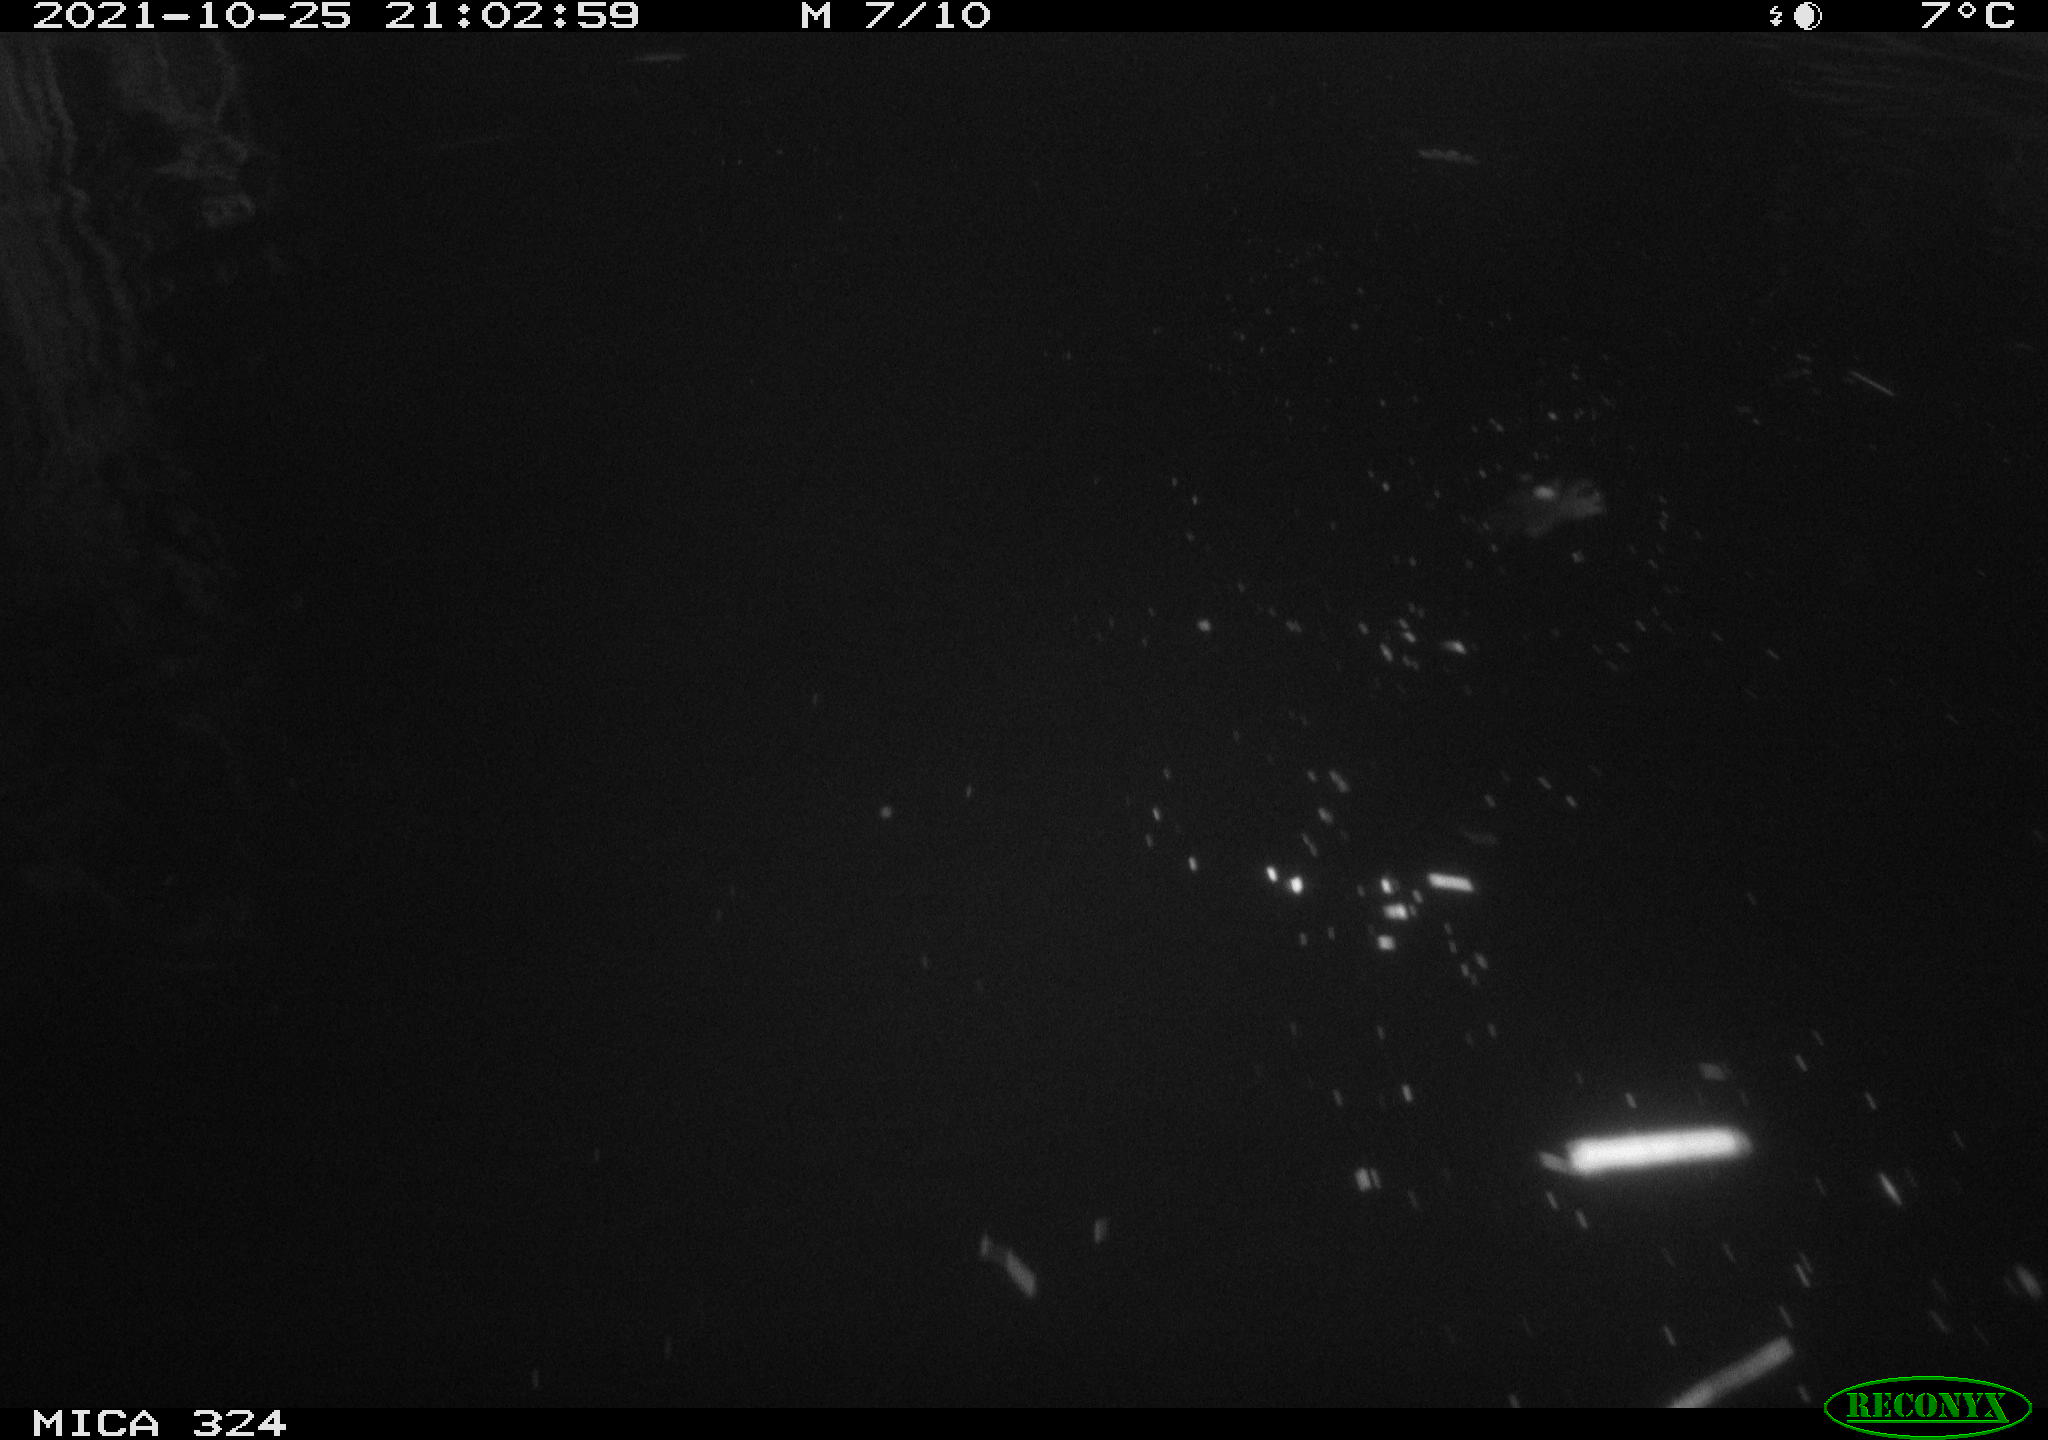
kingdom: Animalia
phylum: Chordata
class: Mammalia
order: Rodentia
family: Cricetidae
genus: Ondatra
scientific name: Ondatra zibethicus
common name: Muskrat
